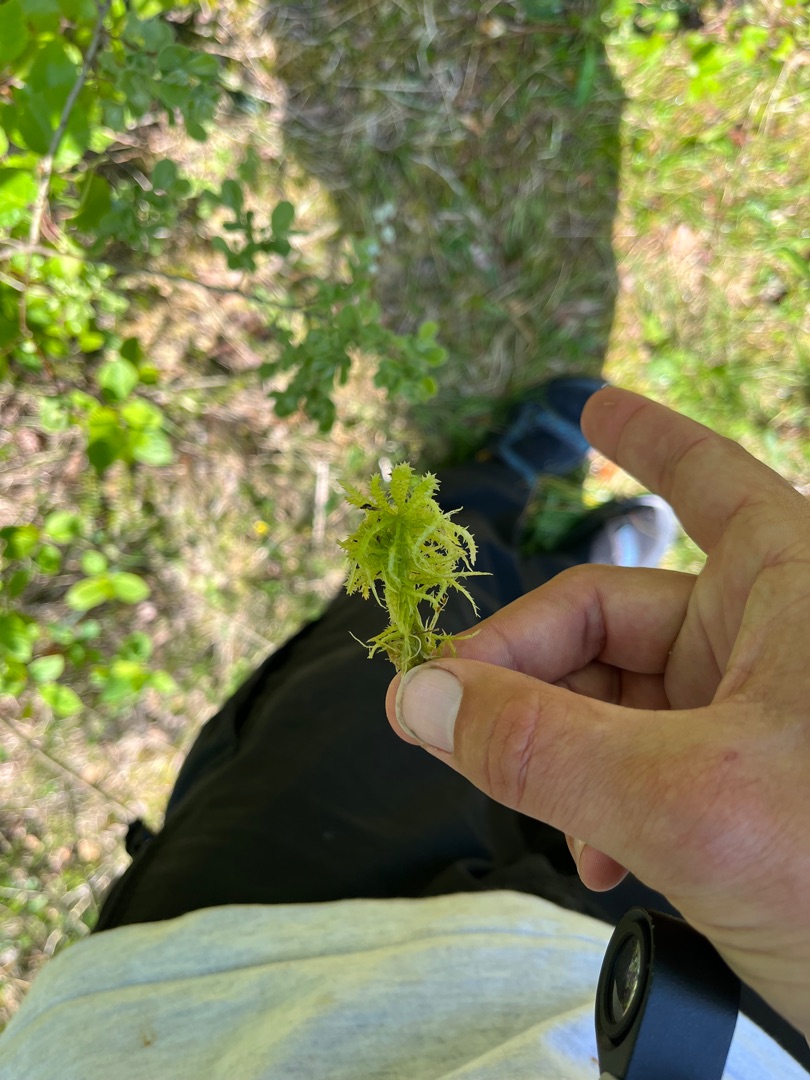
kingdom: Plantae
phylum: Bryophyta
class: Sphagnopsida
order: Sphagnales
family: Sphagnaceae
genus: Sphagnum
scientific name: Sphagnum squarrosum
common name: Udspærret tørvemos
